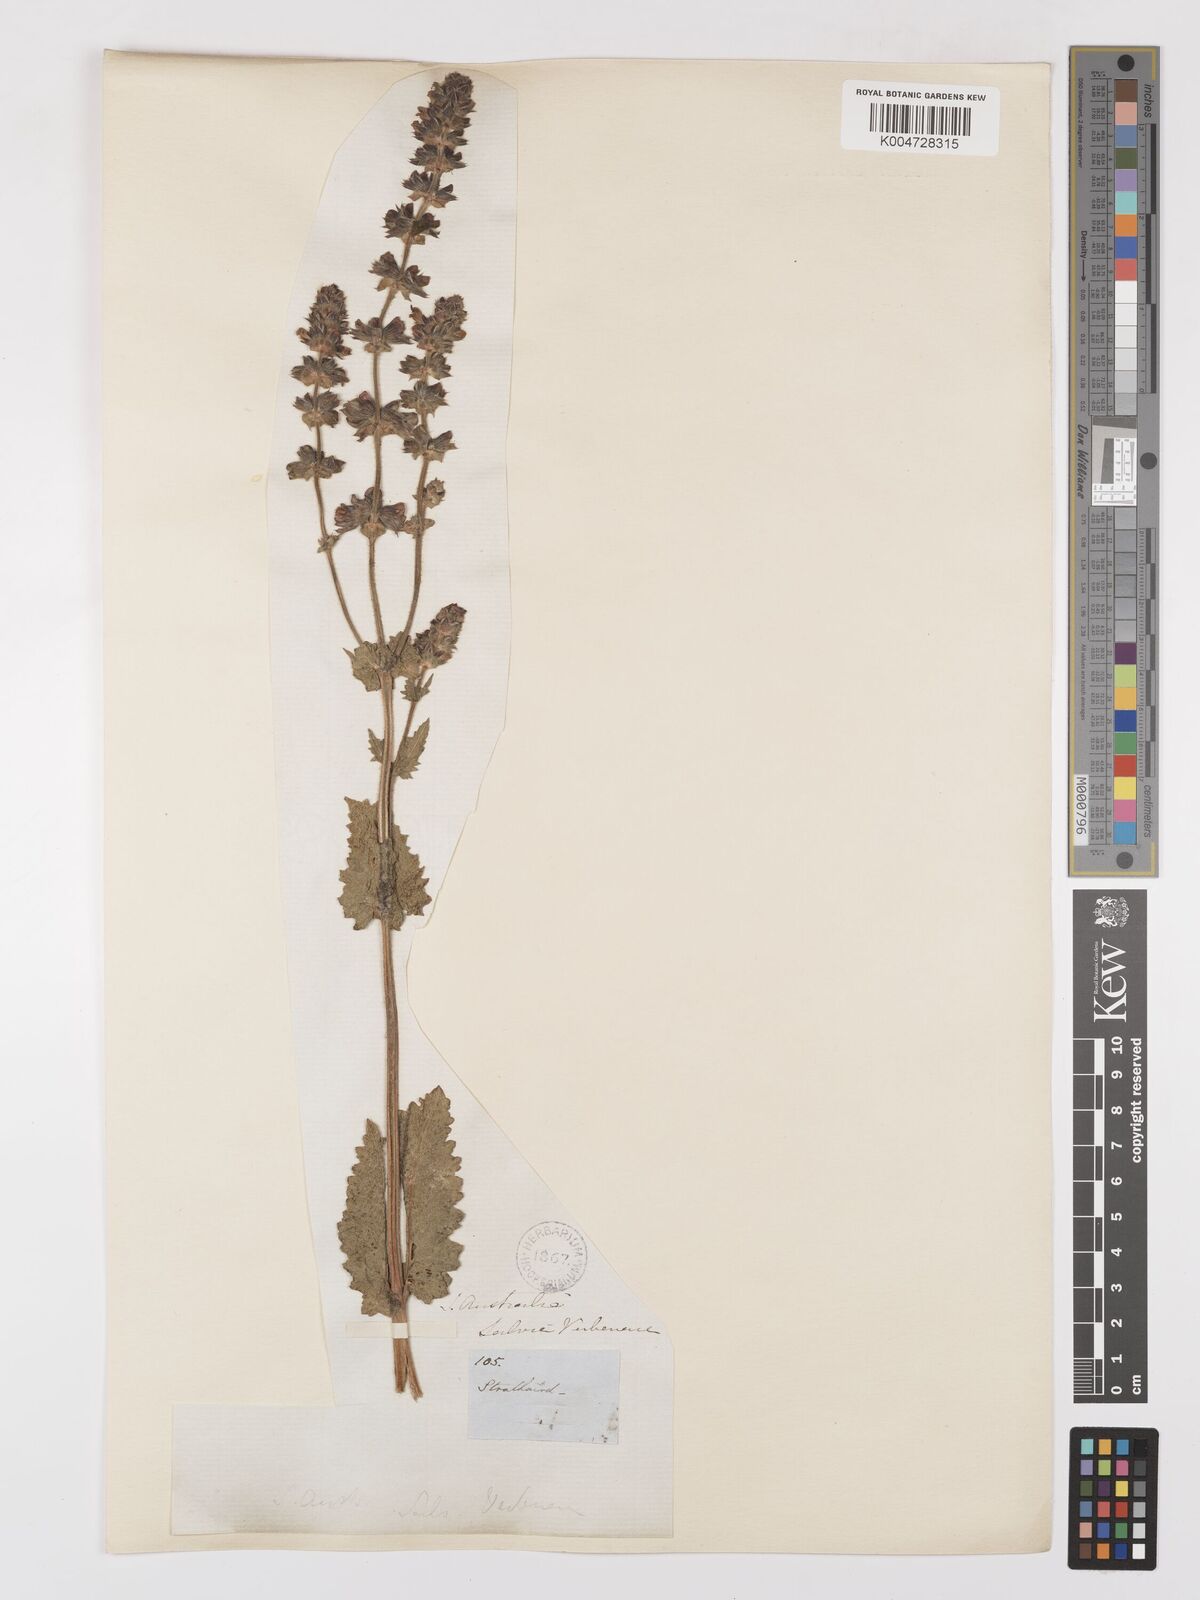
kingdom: Plantae
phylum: Tracheophyta
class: Magnoliopsida
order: Lamiales
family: Lamiaceae
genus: Salvia
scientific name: Salvia verbenaca
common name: Wild clary
